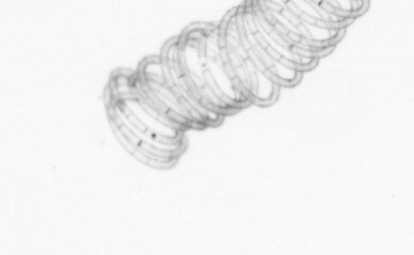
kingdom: Chromista
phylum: Ochrophyta
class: Bacillariophyceae
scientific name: Bacillariophyceae
